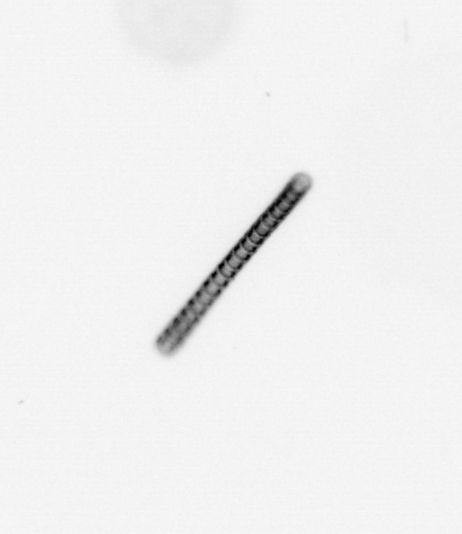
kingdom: Chromista
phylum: Ochrophyta
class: Bacillariophyceae
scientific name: Bacillariophyceae
